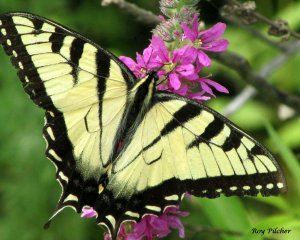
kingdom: Animalia
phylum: Arthropoda
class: Insecta
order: Lepidoptera
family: Papilionidae
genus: Pterourus
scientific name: Pterourus glaucus
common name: Eastern Tiger Swallowtail
